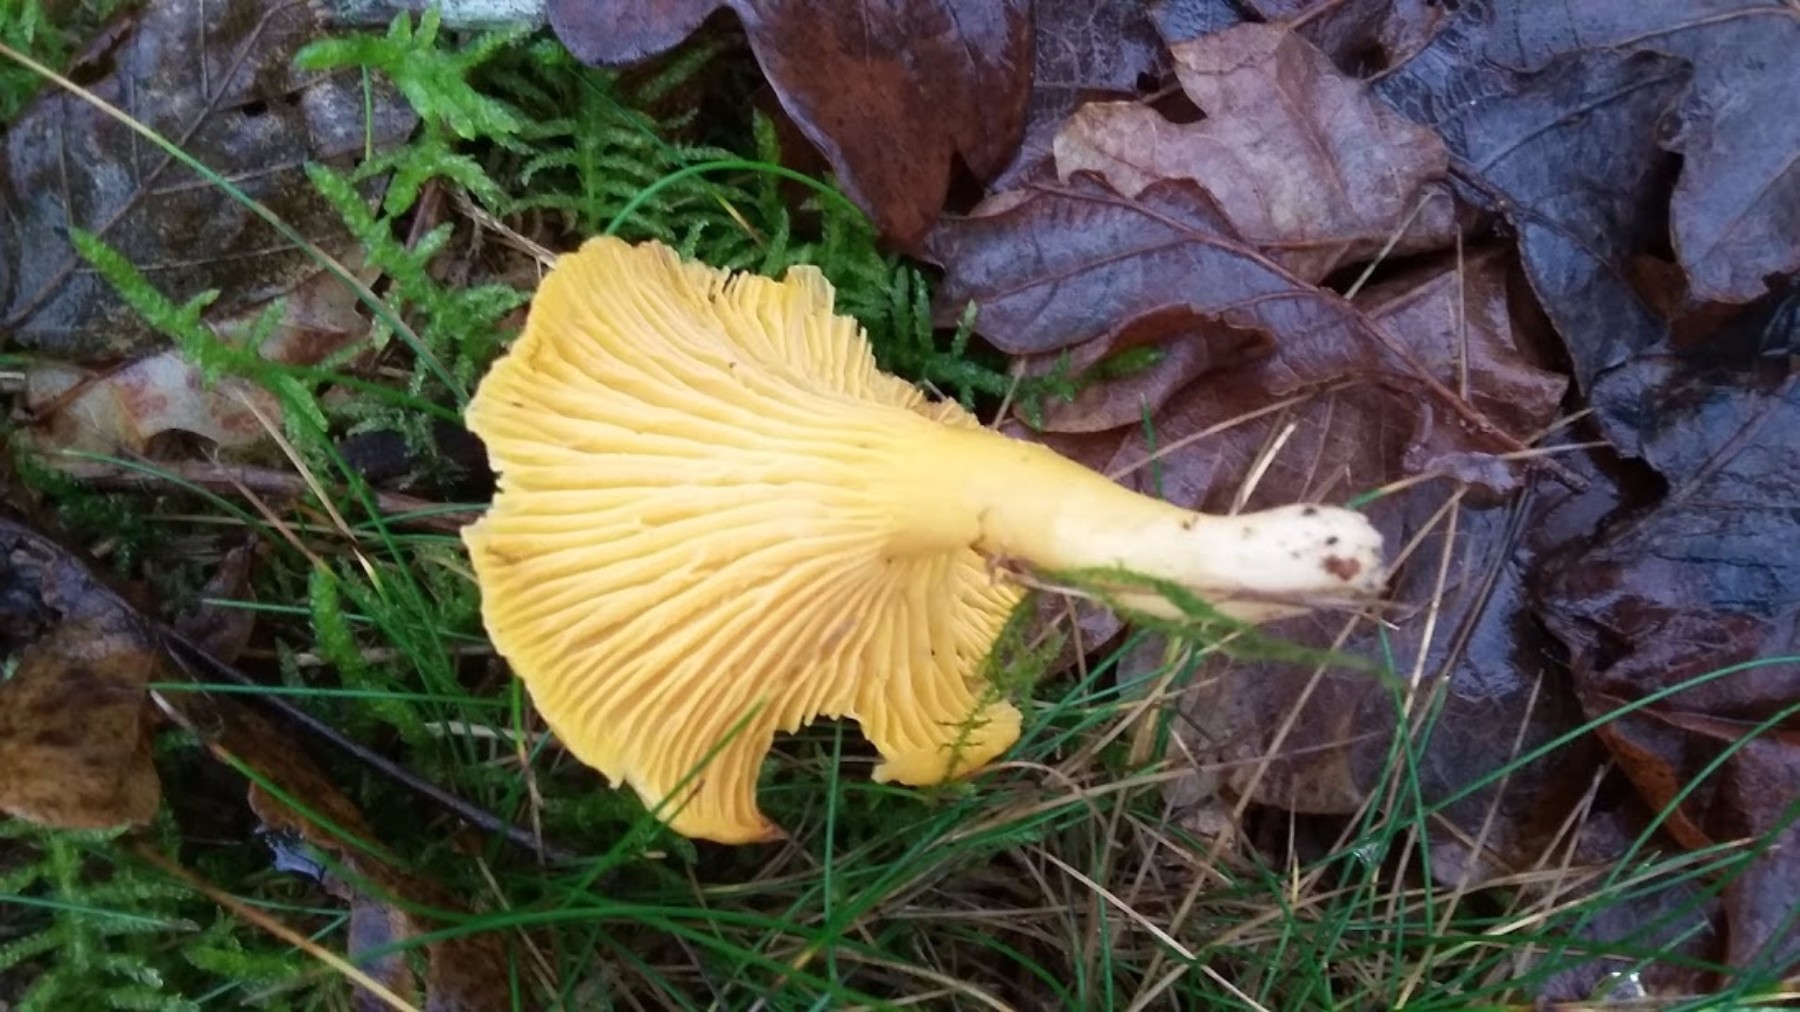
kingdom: Fungi
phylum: Basidiomycota
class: Agaricomycetes
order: Cantharellales
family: Hydnaceae
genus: Cantharellus
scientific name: Cantharellus cibarius
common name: almindelig kantarel
